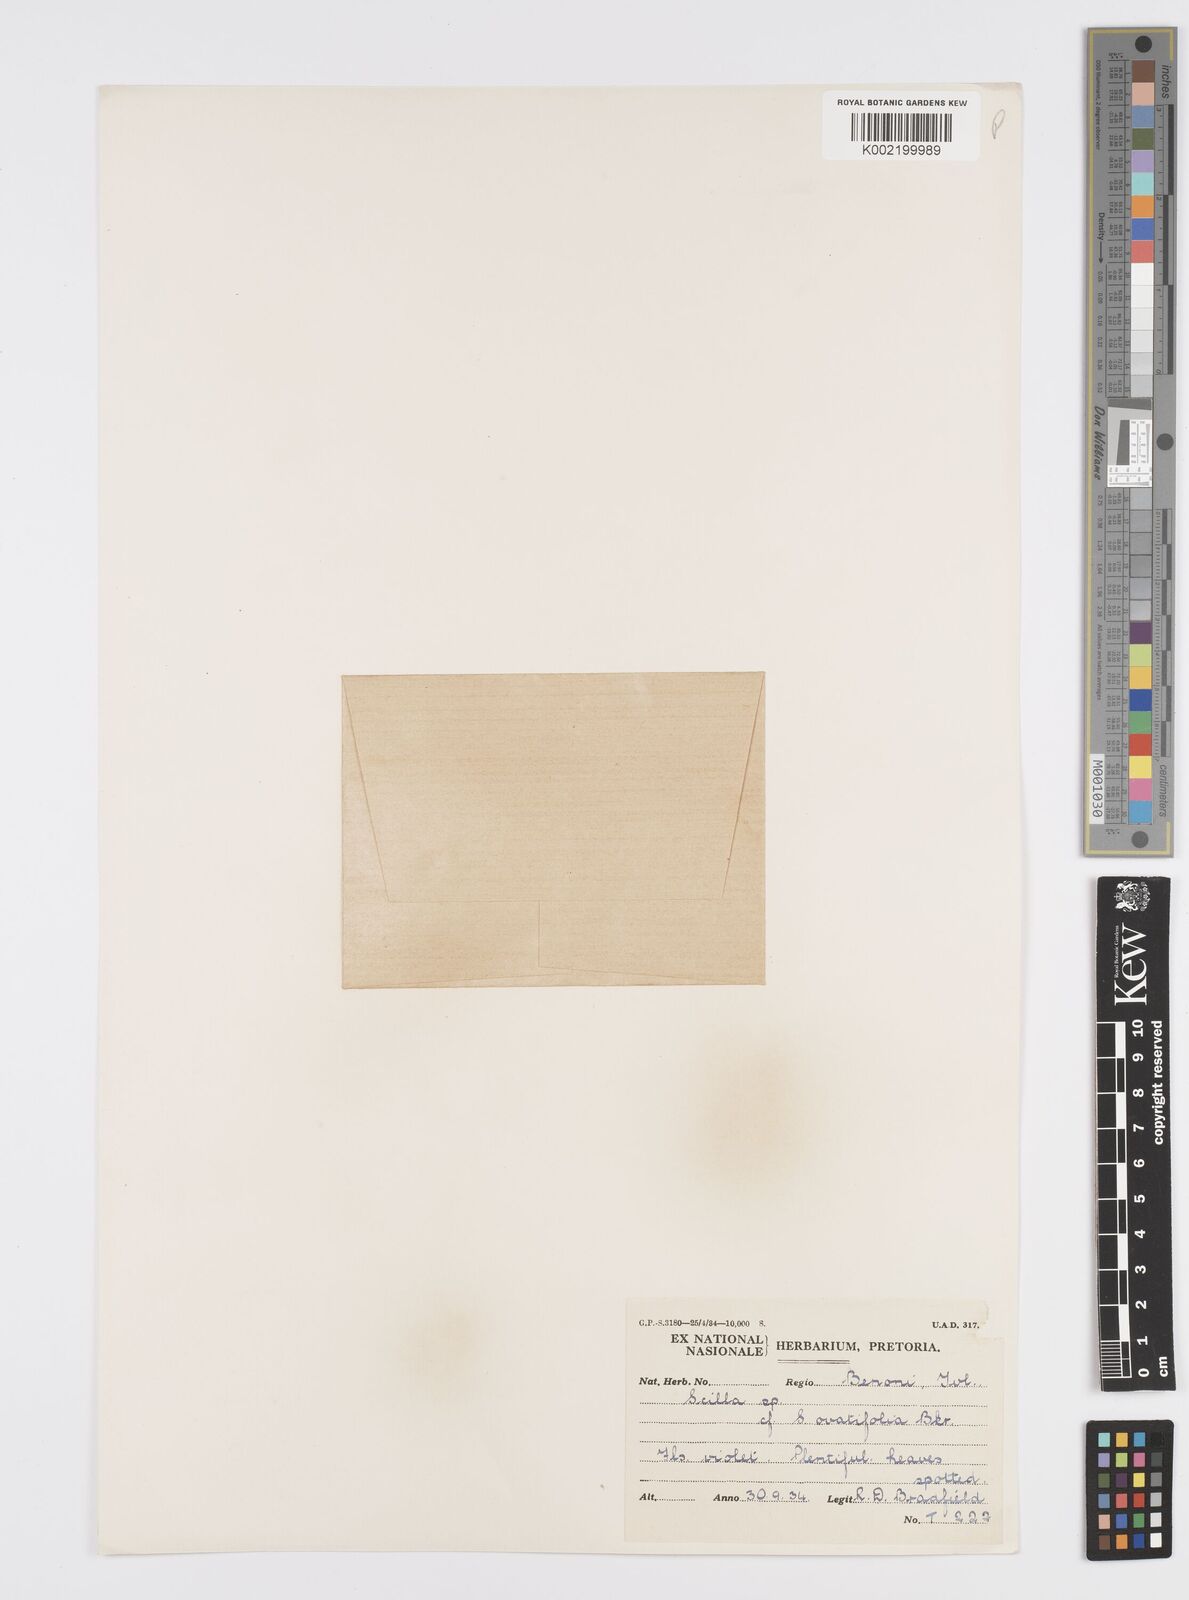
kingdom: Plantae
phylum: Tracheophyta
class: Liliopsida
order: Asparagales
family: Asparagaceae
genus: Ledebouria
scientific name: Ledebouria ovatifolia
